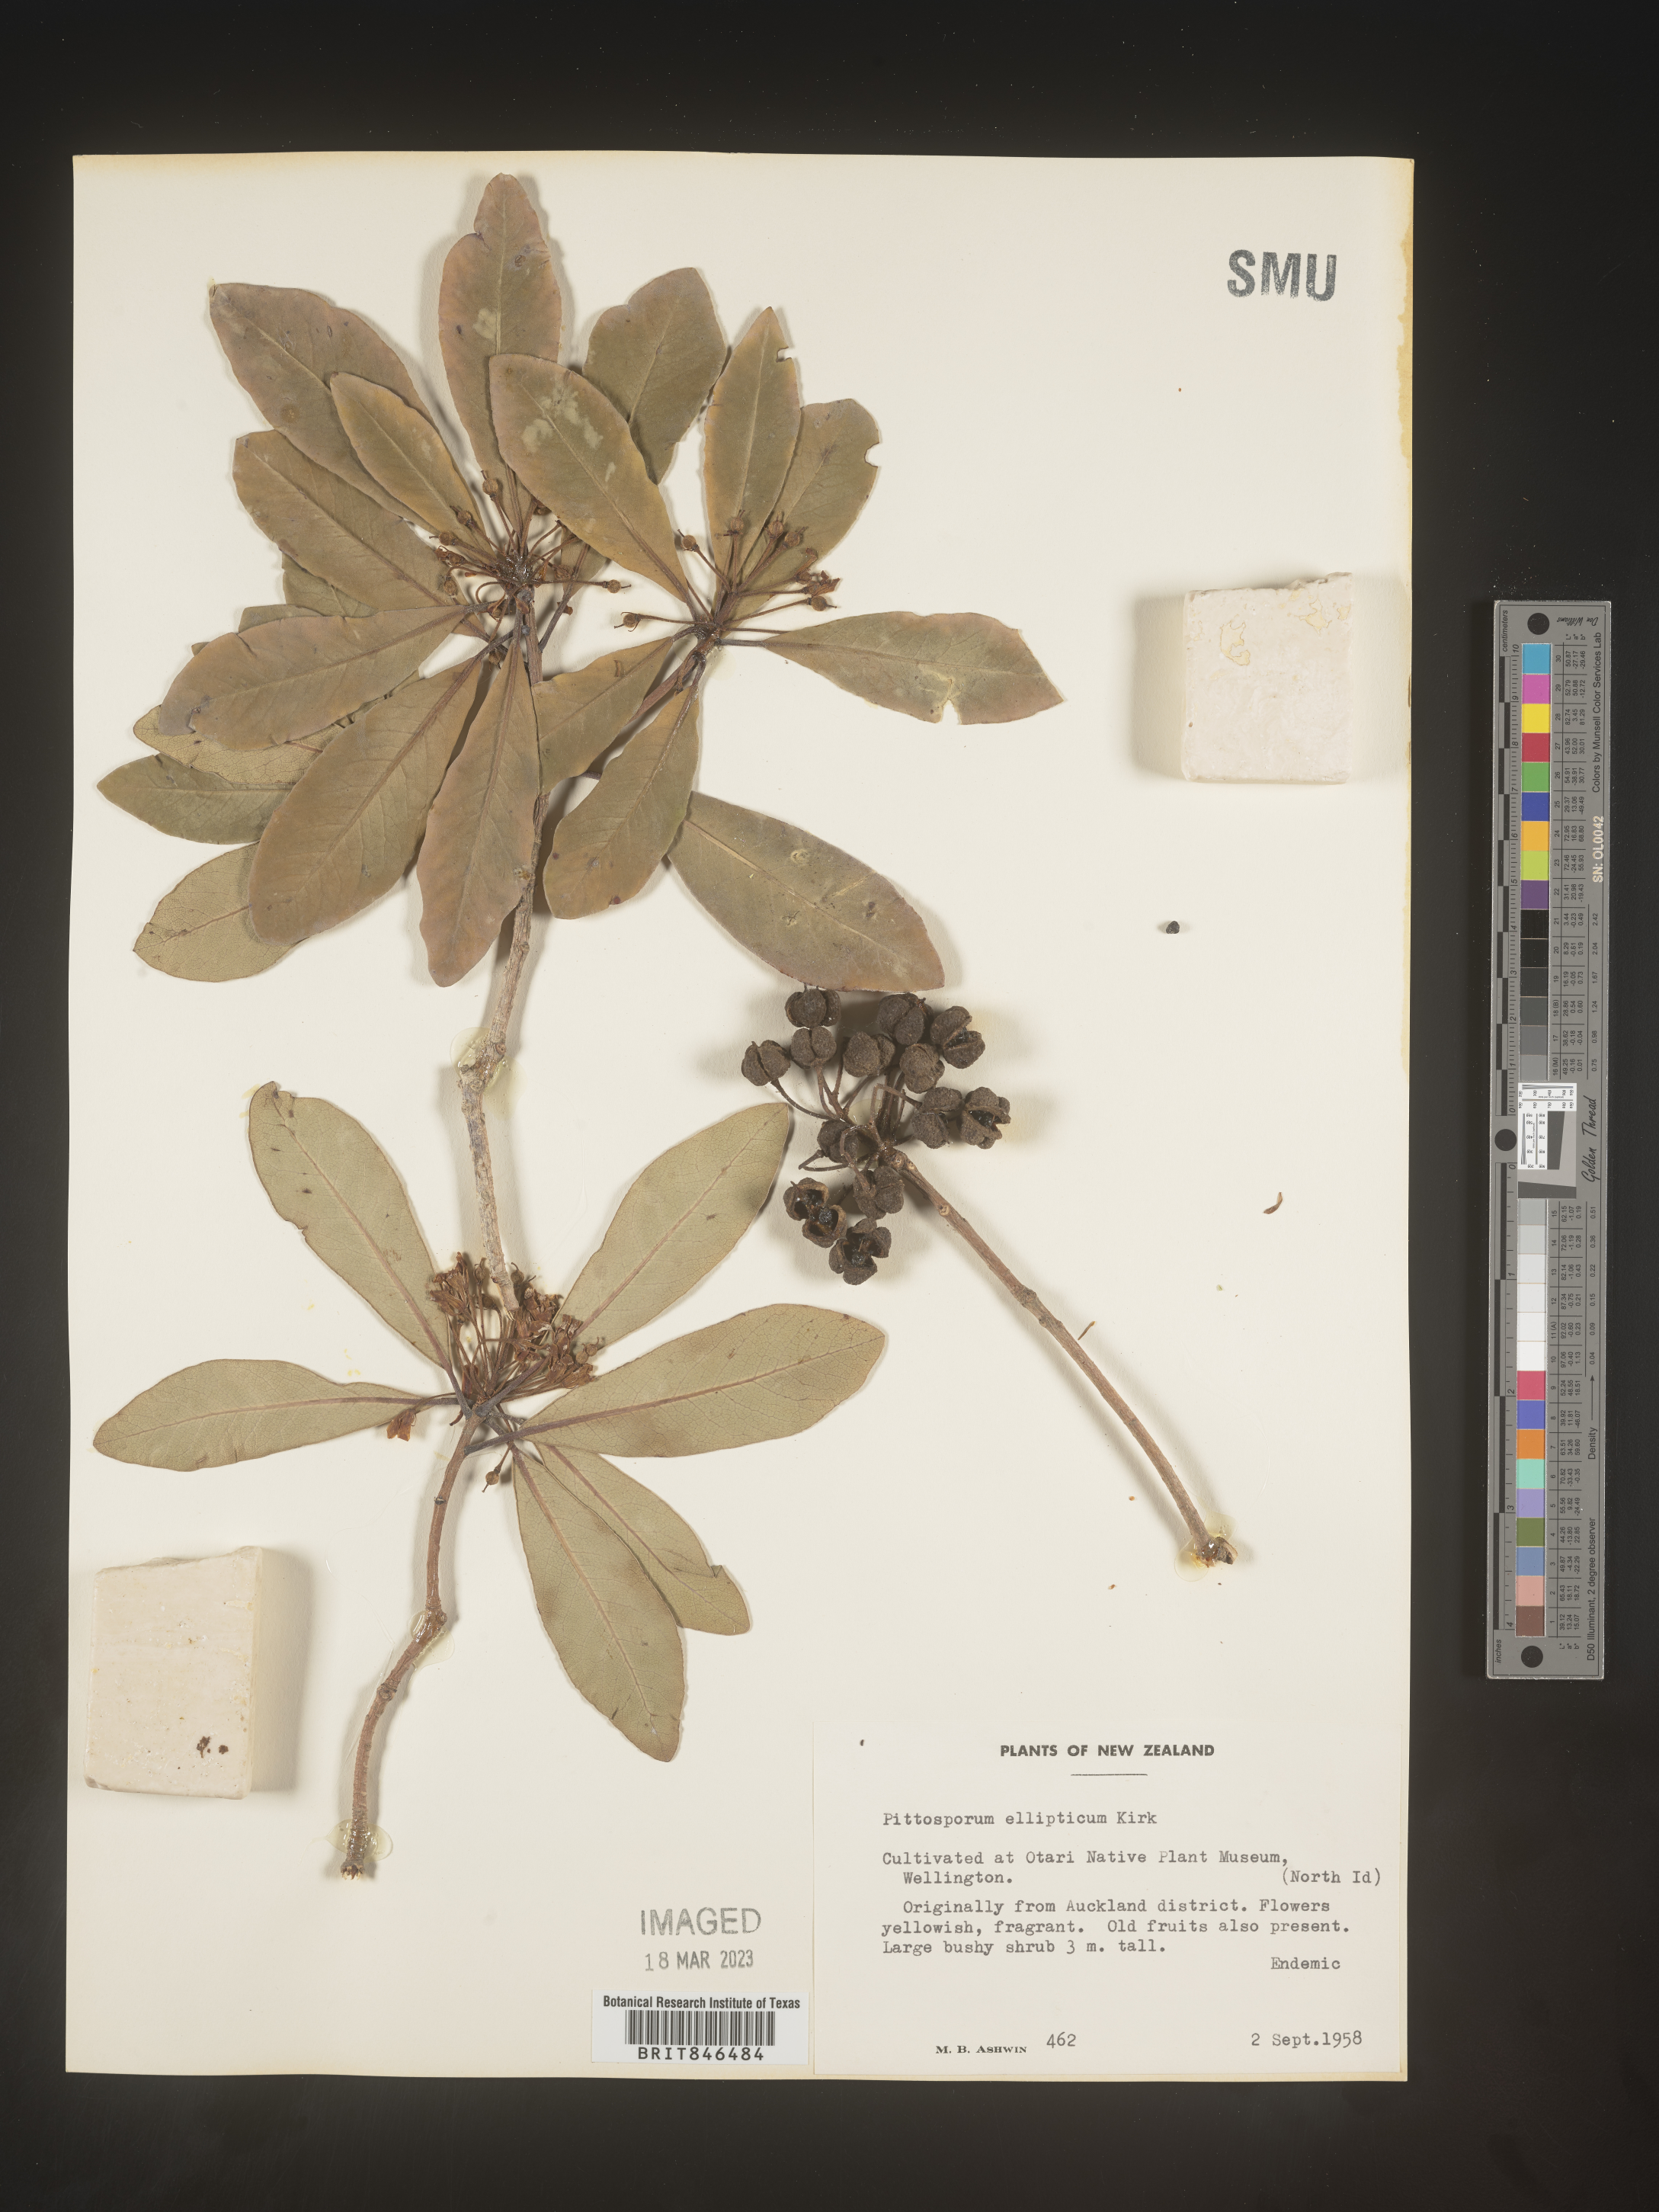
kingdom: Plantae
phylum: Tracheophyta
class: Magnoliopsida
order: Apiales
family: Pittosporaceae
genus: Pittosporum
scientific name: Pittosporum
